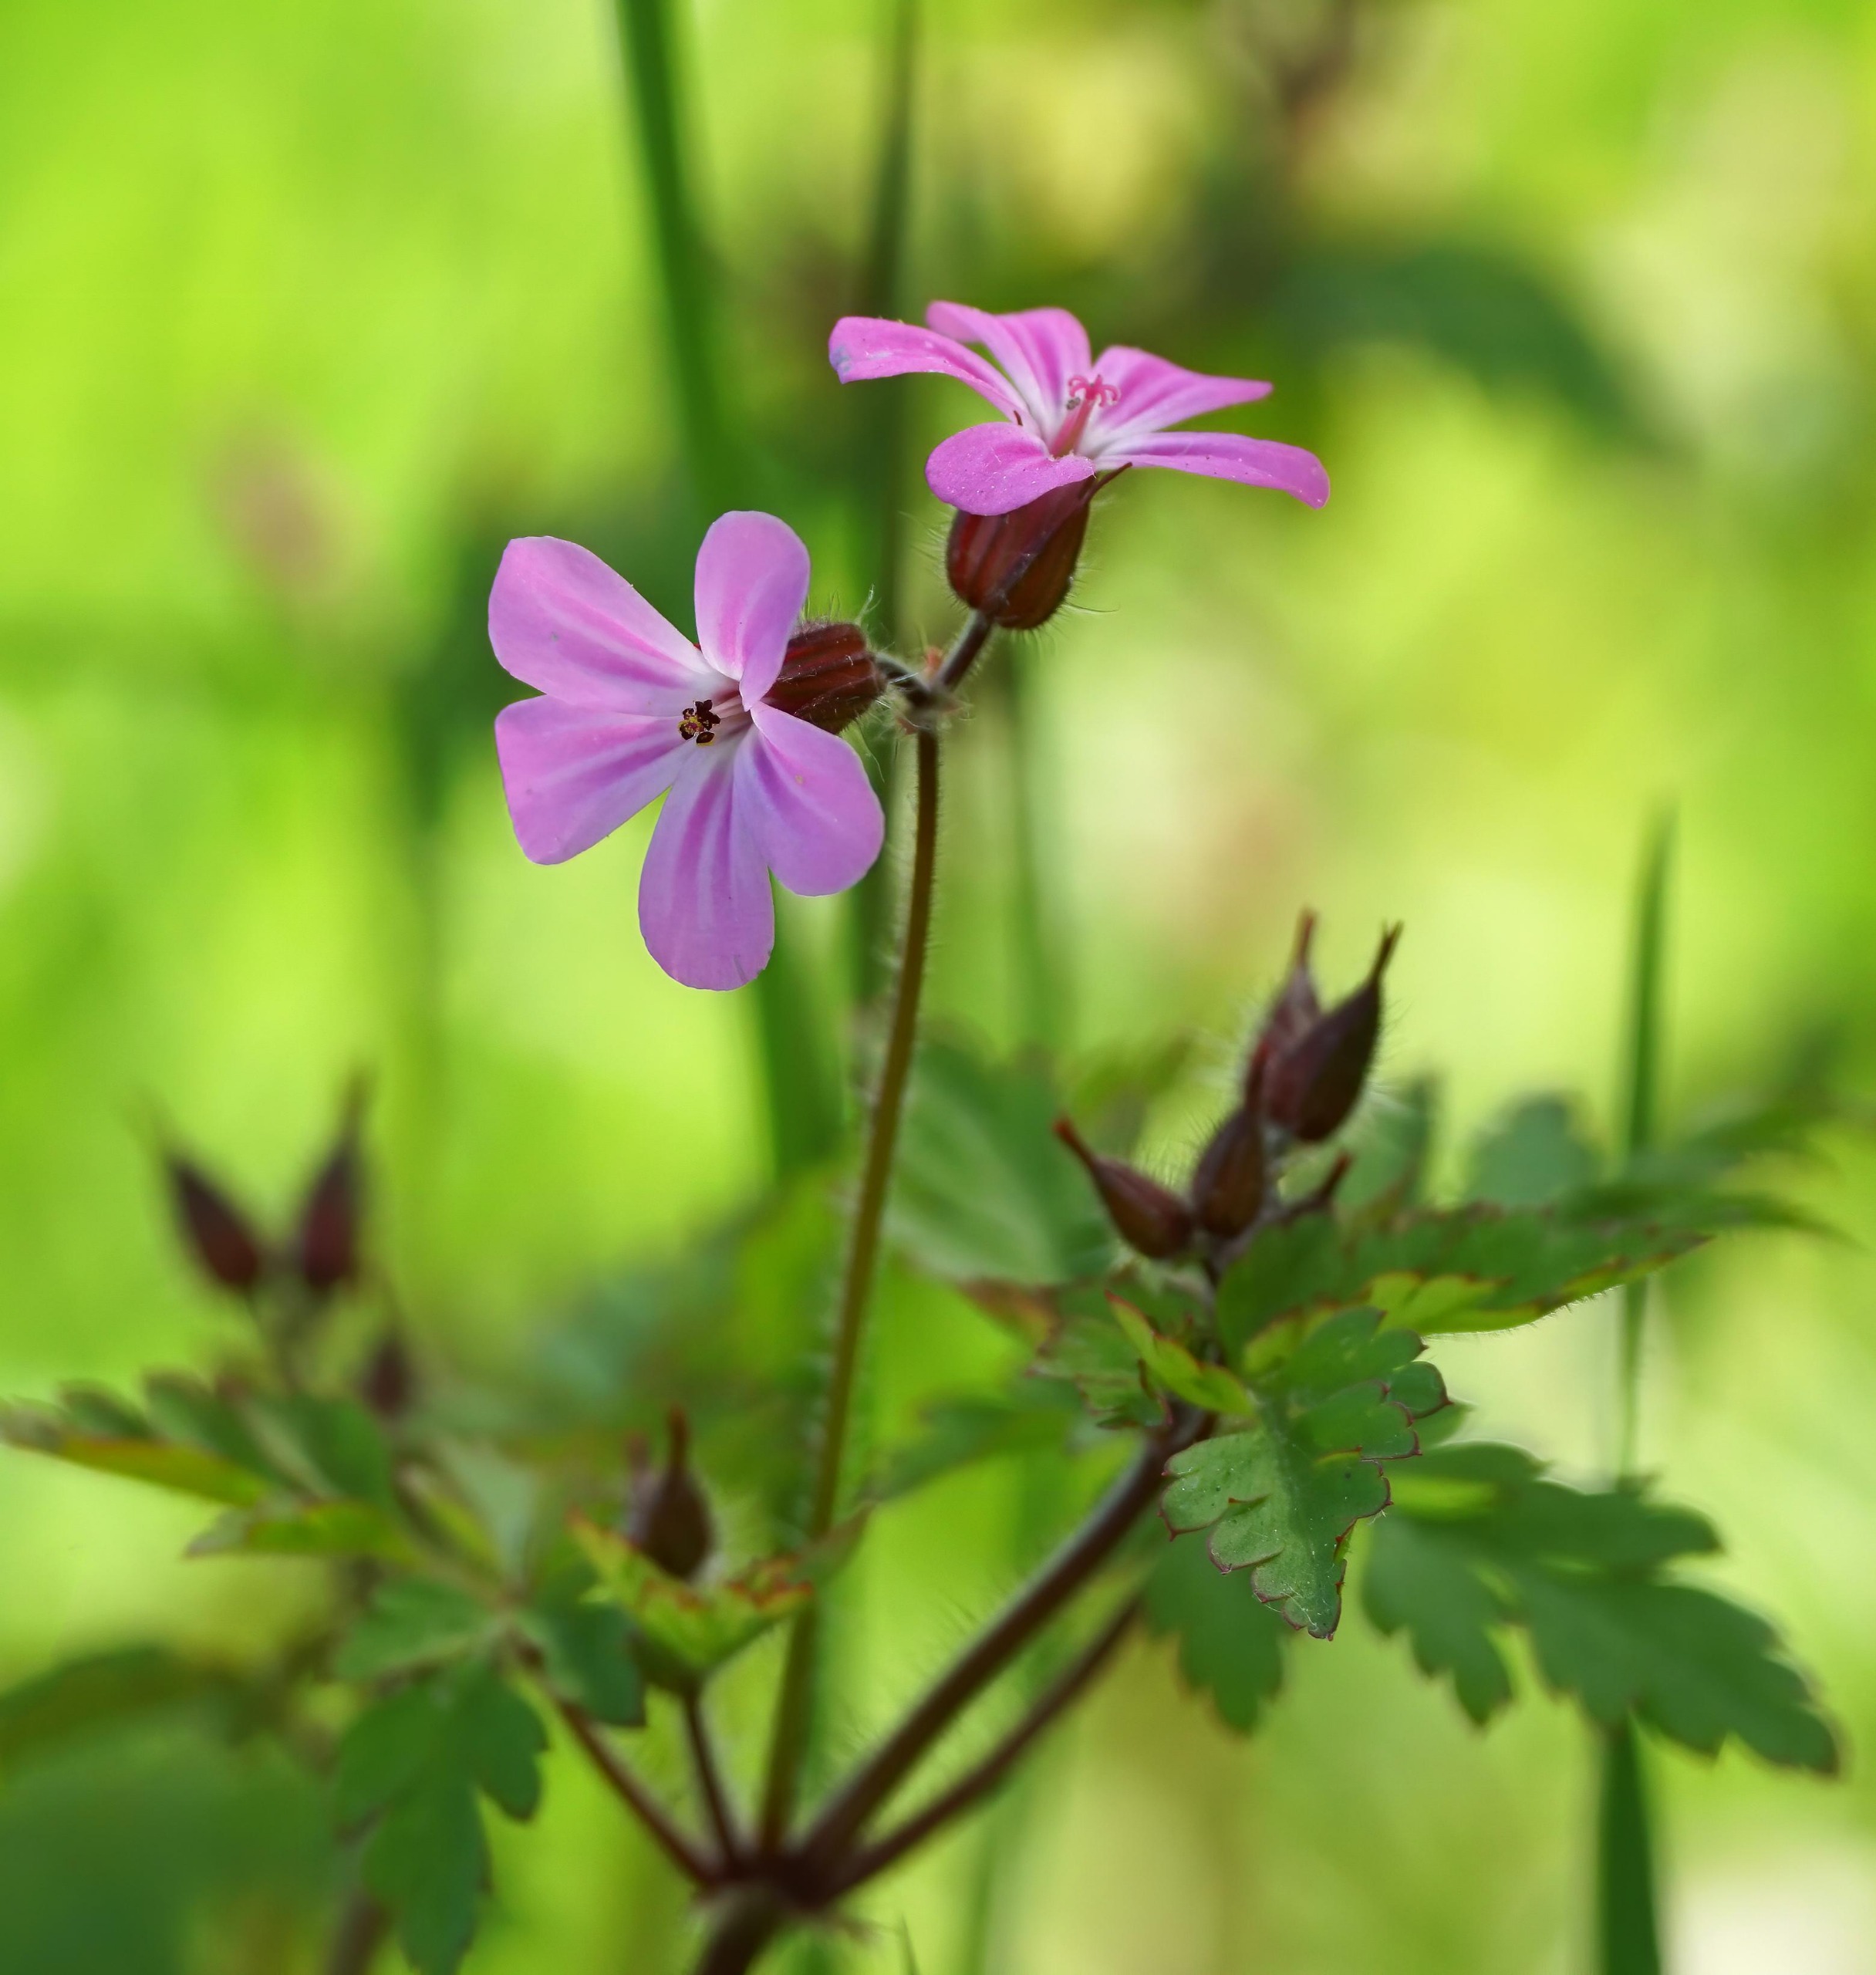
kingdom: Plantae
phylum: Tracheophyta
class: Magnoliopsida
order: Geraniales
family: Geraniaceae
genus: Geranium
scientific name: Geranium robertianum
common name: Stinkende storkenæb
